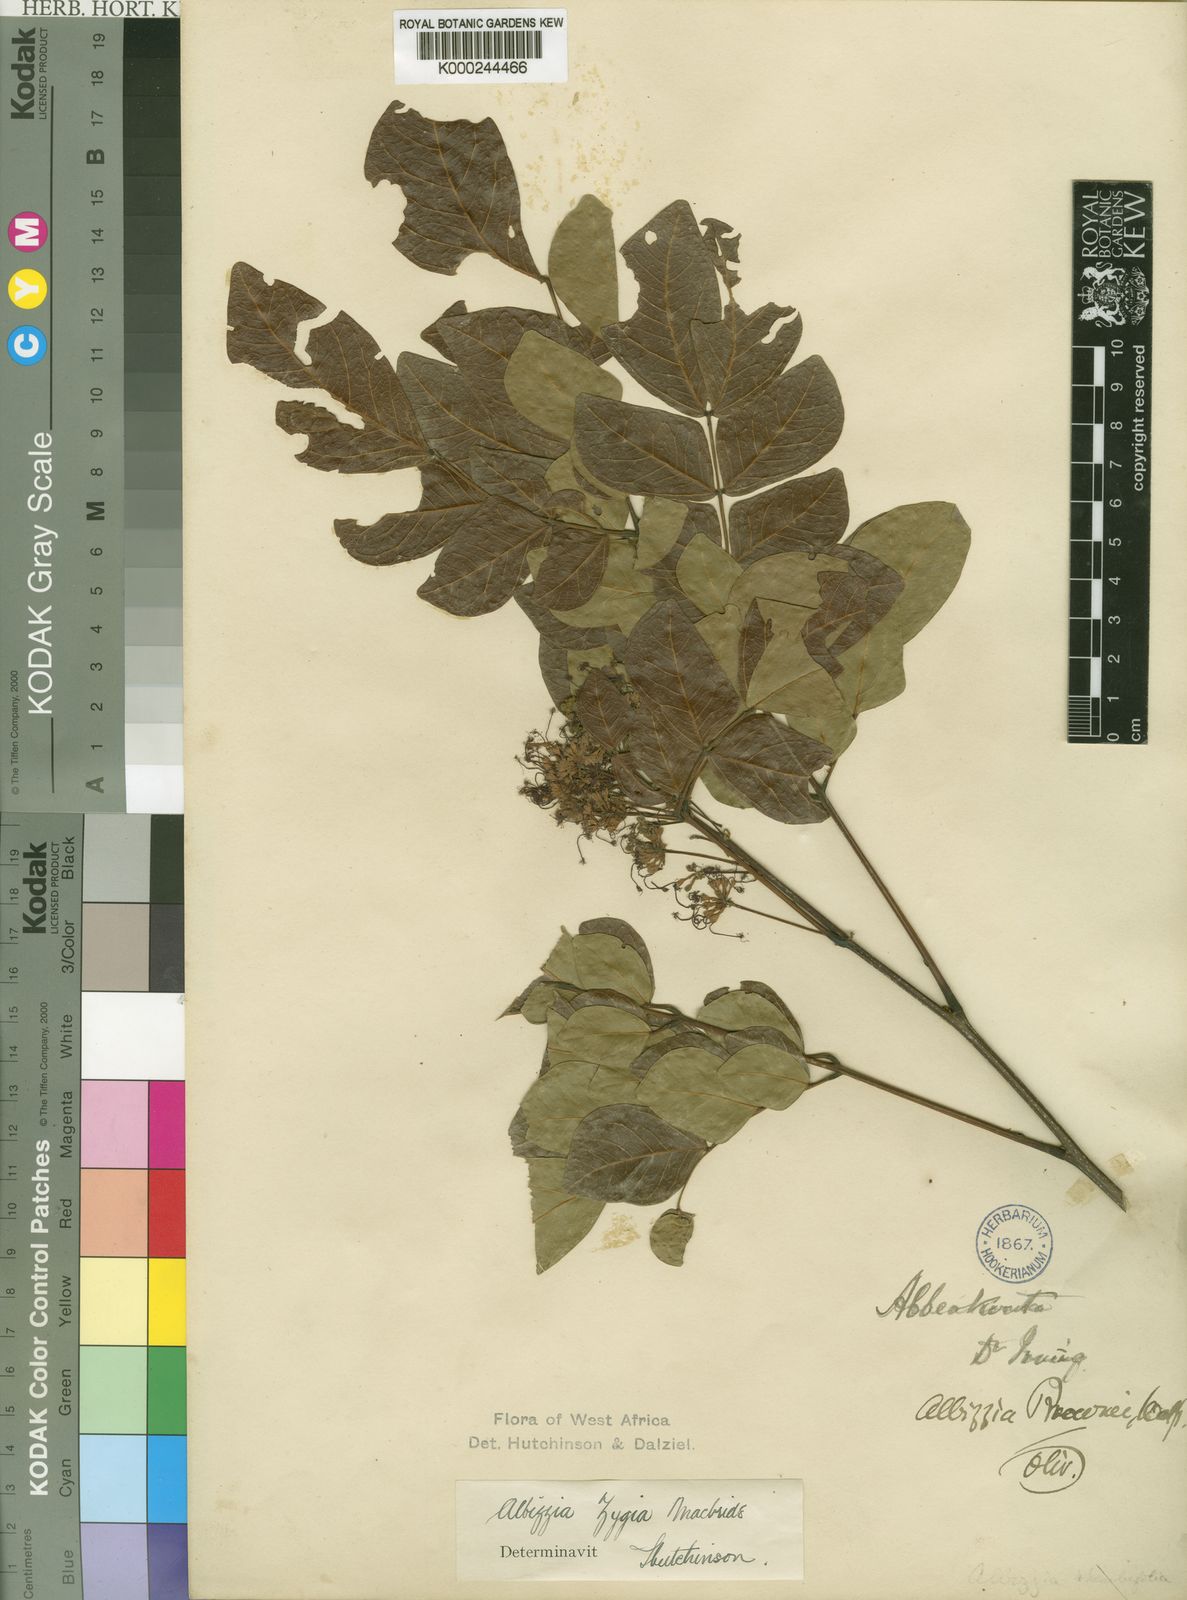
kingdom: Plantae
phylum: Tracheophyta
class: Magnoliopsida
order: Fabales
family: Fabaceae
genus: Albizia
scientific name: Albizia zygia
